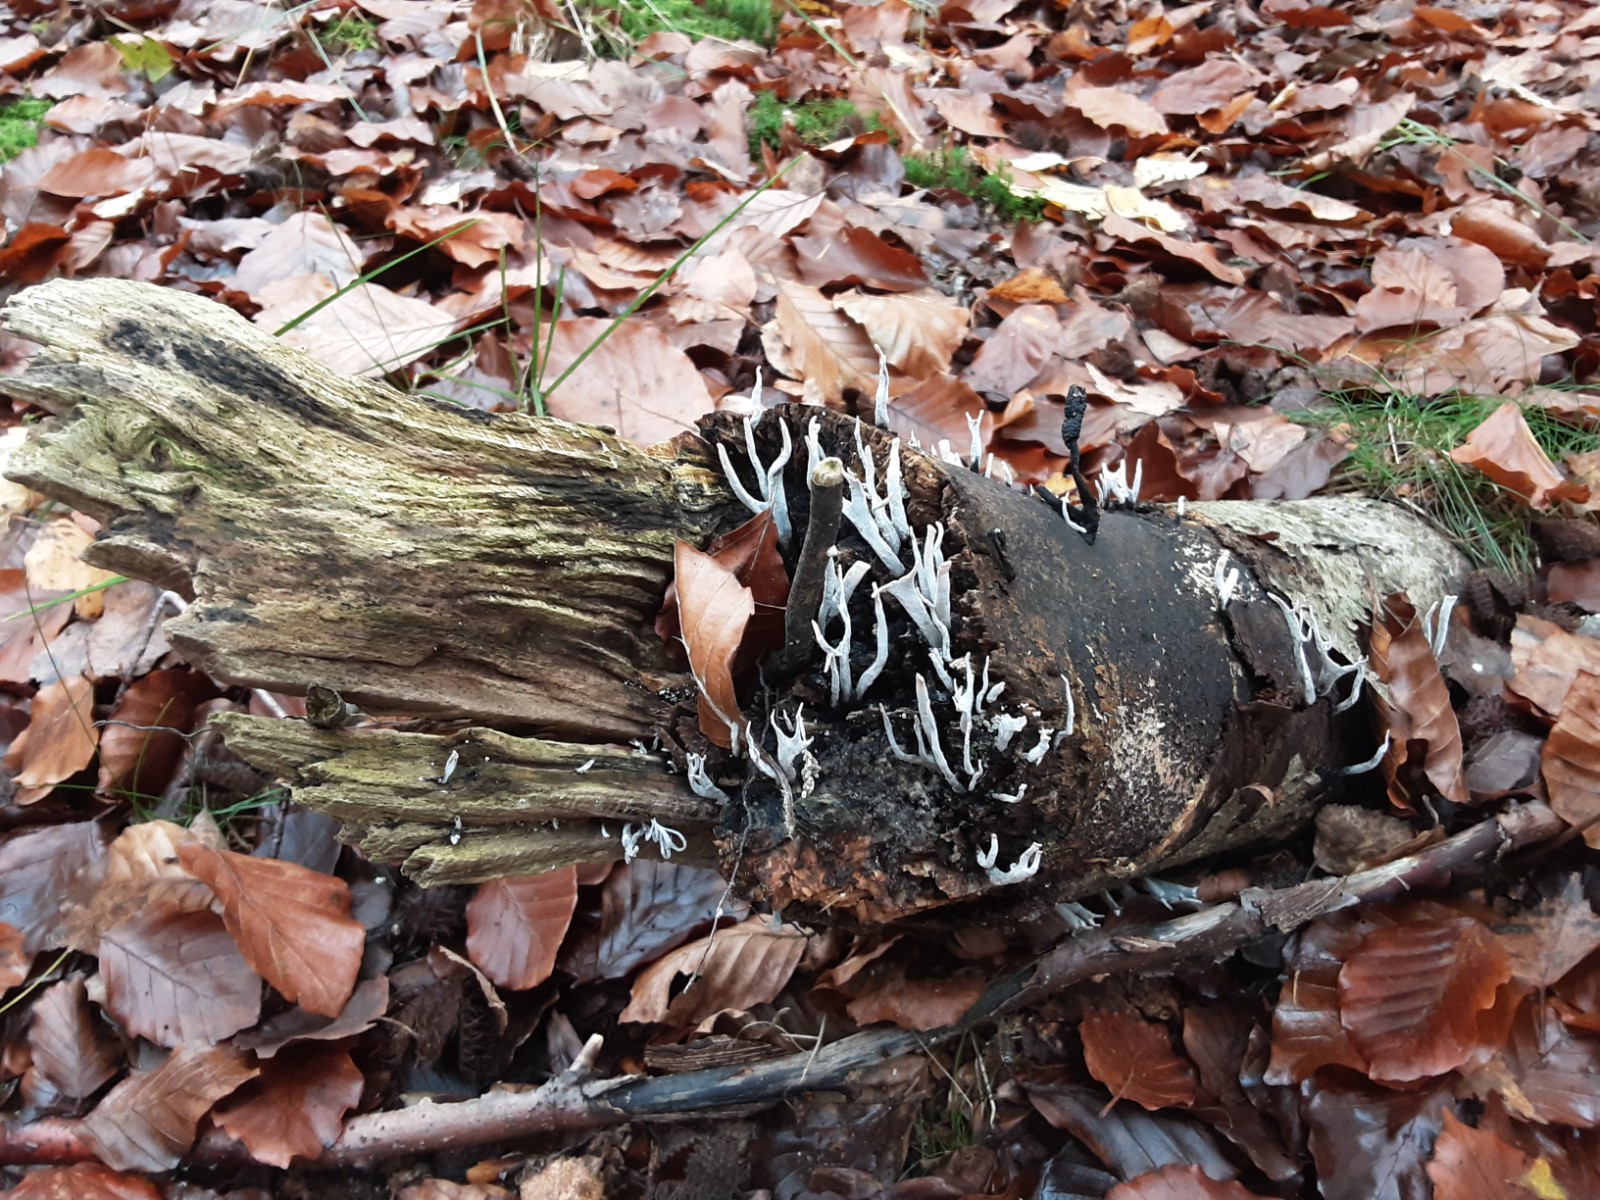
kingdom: Fungi
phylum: Ascomycota
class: Sordariomycetes
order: Xylariales
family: Xylariaceae
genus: Xylaria
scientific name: Xylaria hypoxylon
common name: grenet stødsvamp
